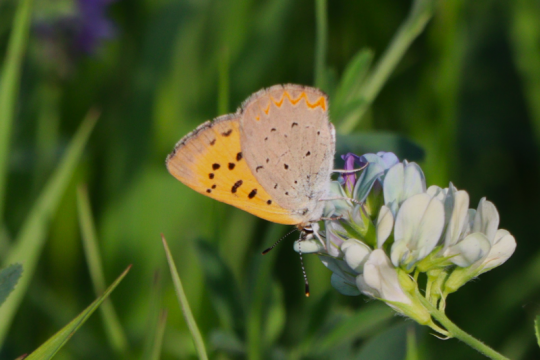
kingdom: Animalia
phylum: Arthropoda
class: Insecta
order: Lepidoptera
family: Sesiidae
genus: Sesia
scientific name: Sesia Lycaena helloides
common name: Purplish Copper
